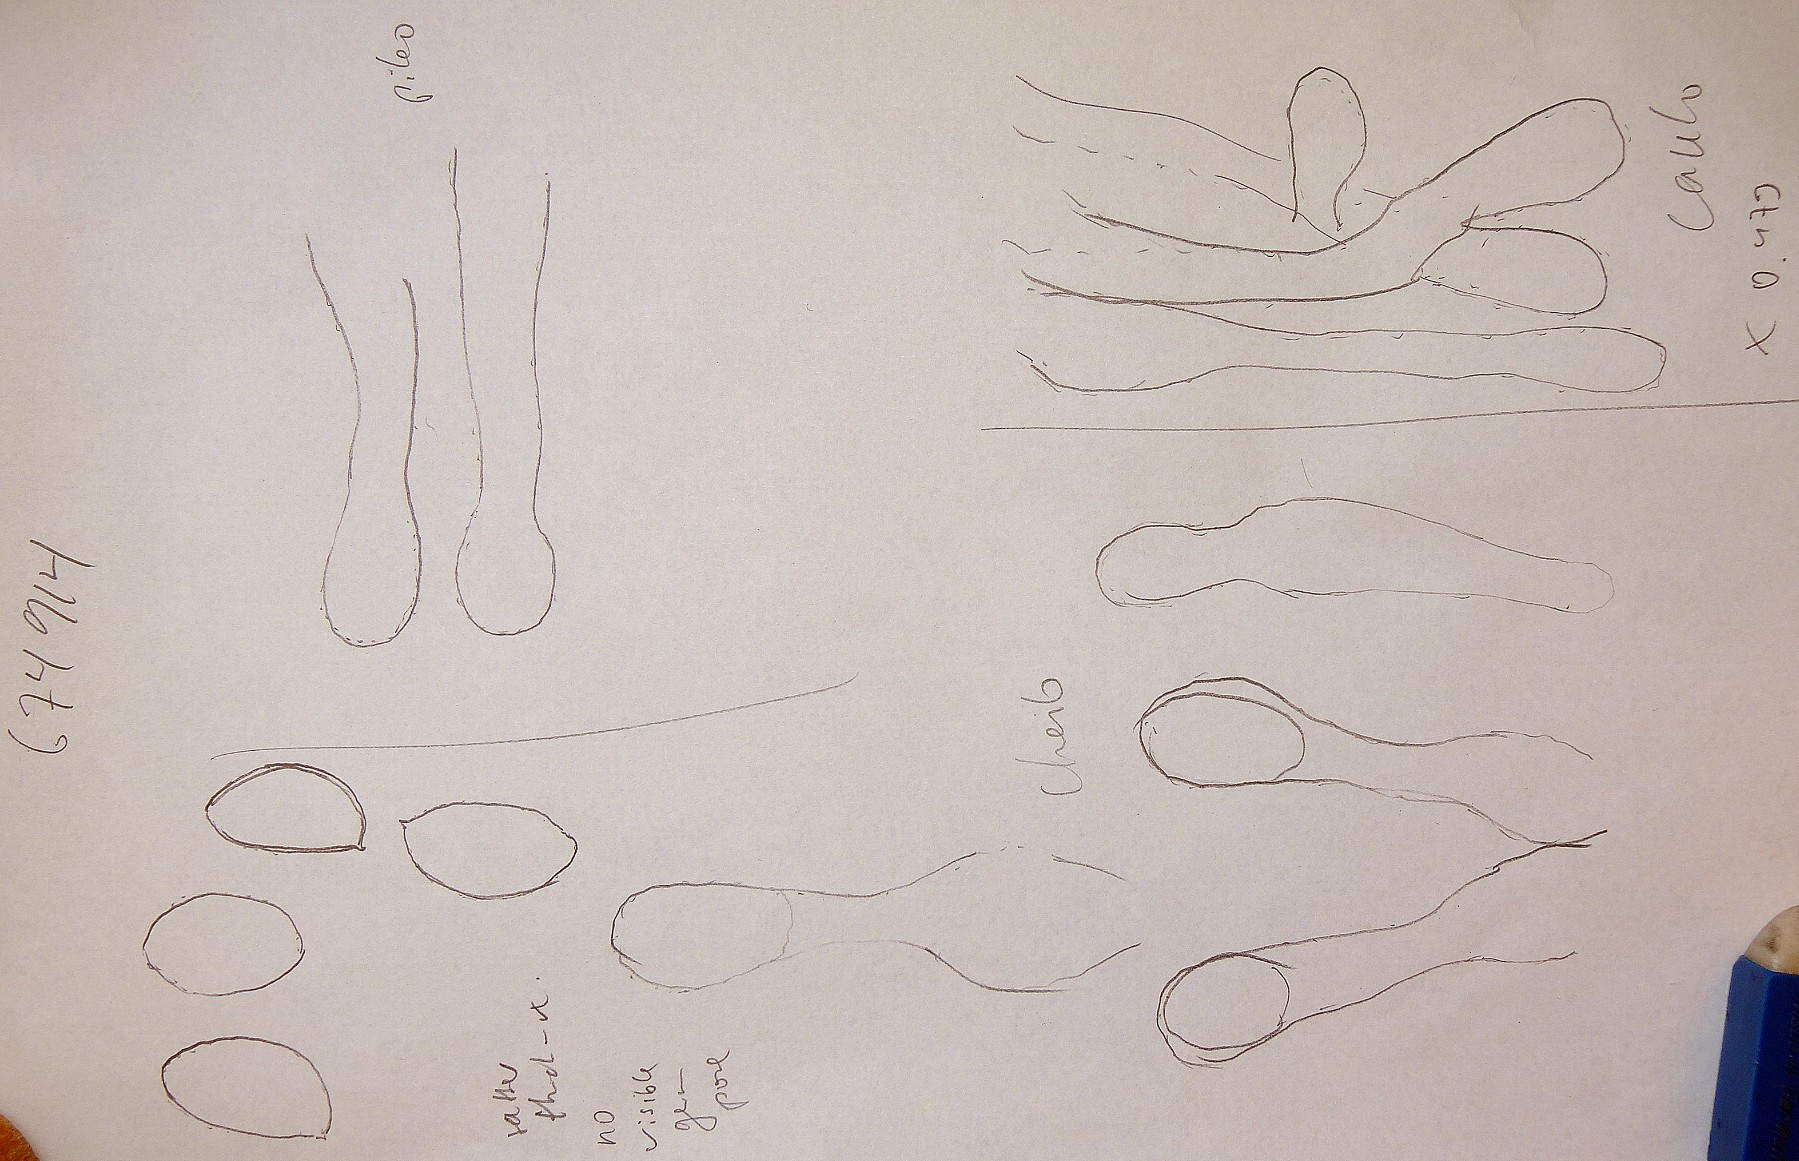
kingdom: Fungi
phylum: Basidiomycota
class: Agaricomycetes
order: Agaricales
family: Crepidotaceae
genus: Simocybe
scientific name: Simocybe centunculus
